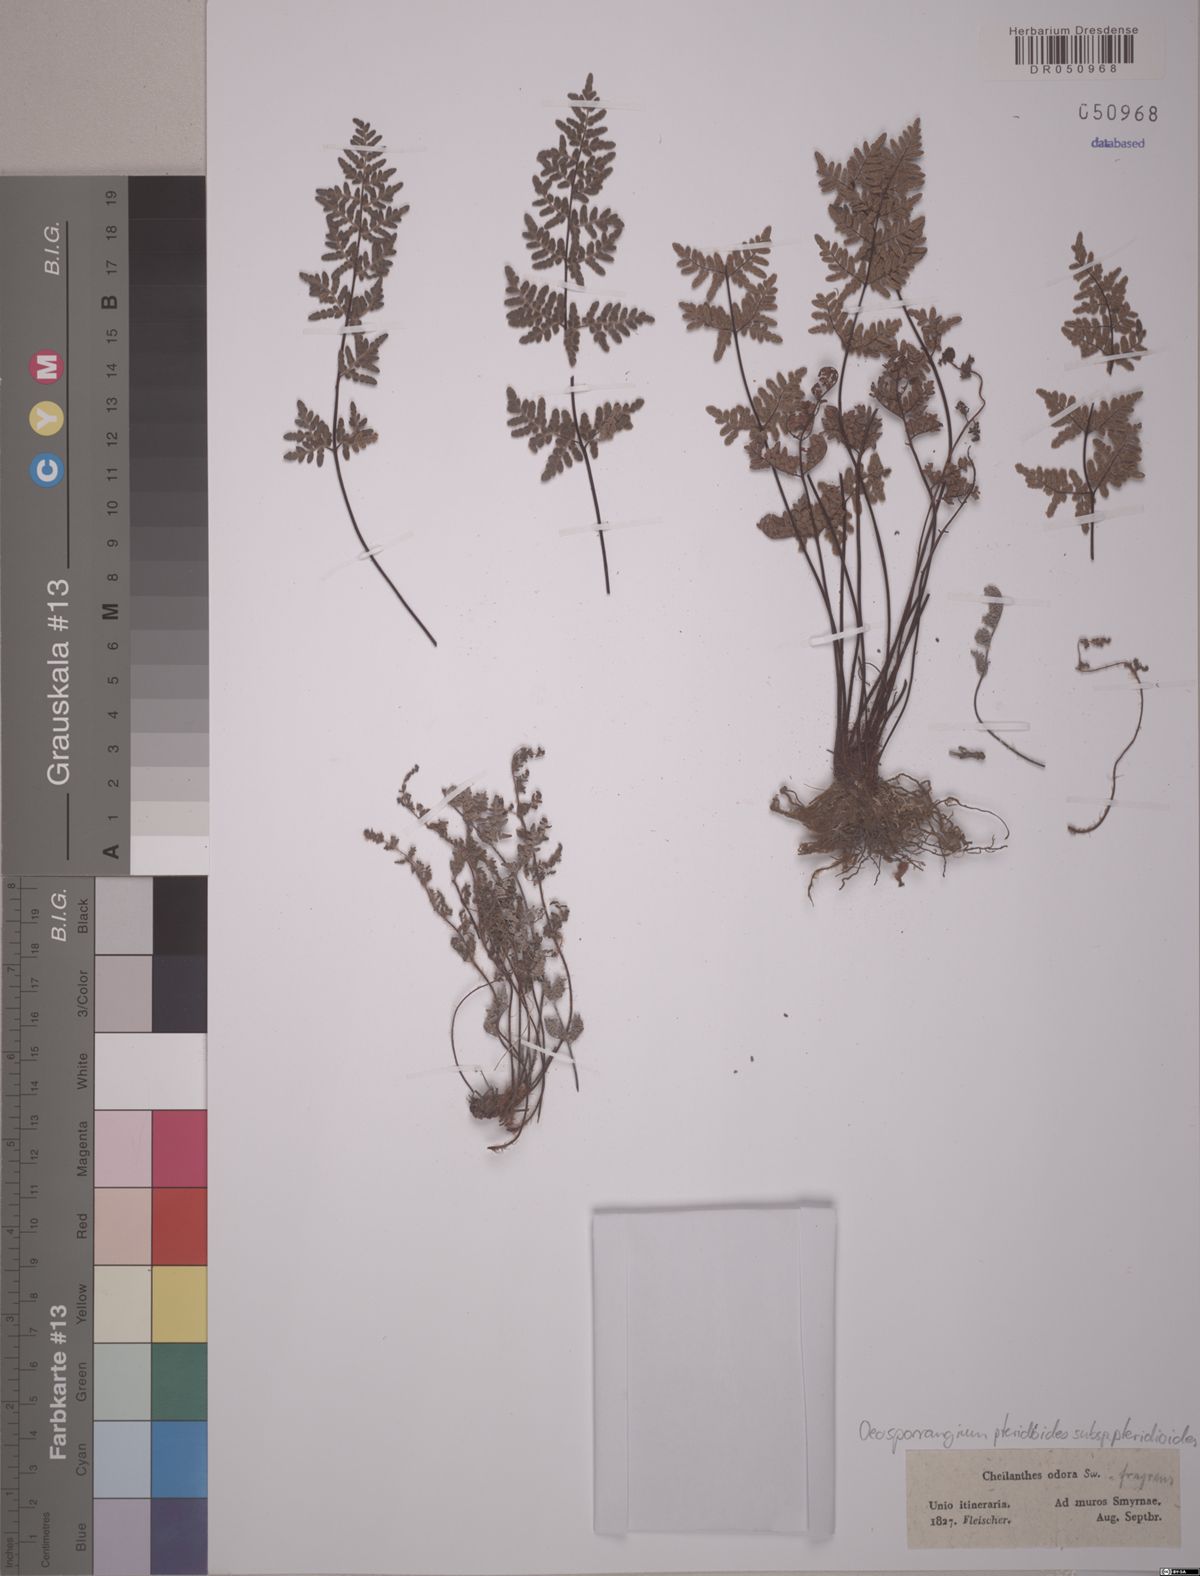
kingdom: Plantae
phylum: Tracheophyta
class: Polypodiopsida
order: Polypodiales
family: Pteridaceae
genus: Oeosporangium
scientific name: Oeosporangium pteridioides
